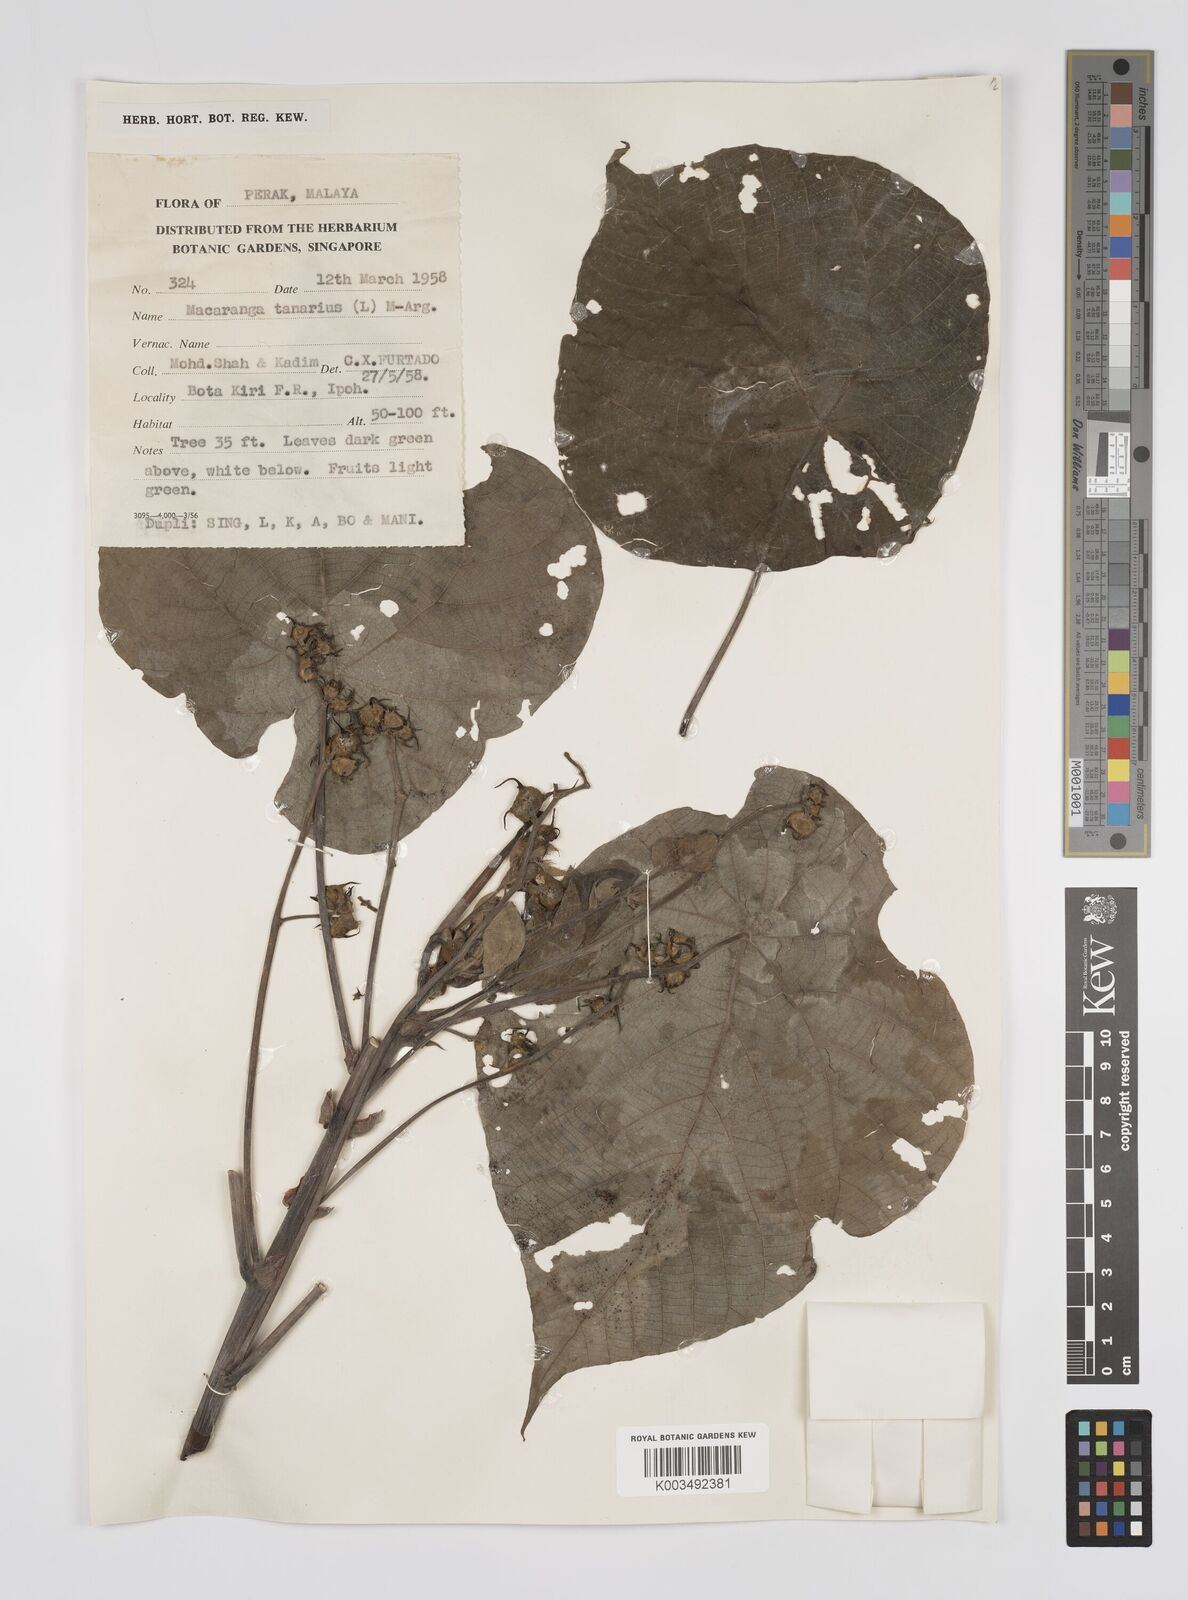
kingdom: Plantae
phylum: Tracheophyta
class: Magnoliopsida
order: Malpighiales
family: Euphorbiaceae
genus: Macaranga
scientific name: Macaranga tanarius
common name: Parasol leaf tree
